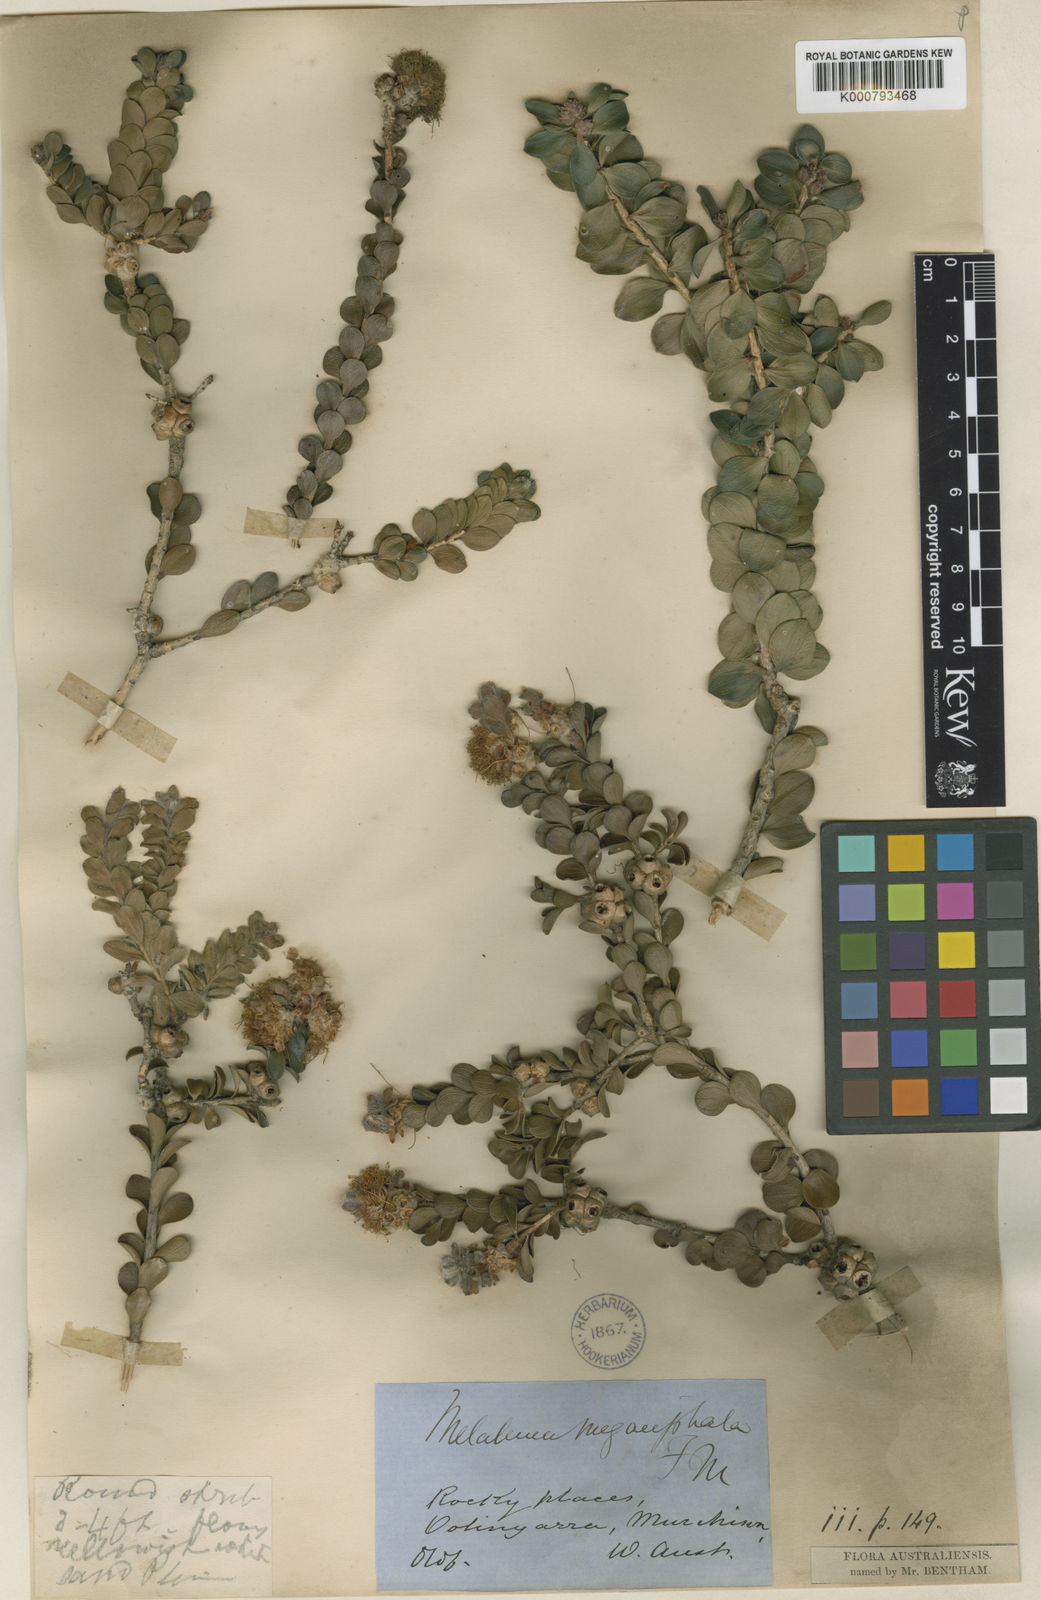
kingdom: Plantae
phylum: Tracheophyta
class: Magnoliopsida
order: Myrtales
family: Myrtaceae
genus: Melaleuca
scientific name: Melaleuca megacephala
